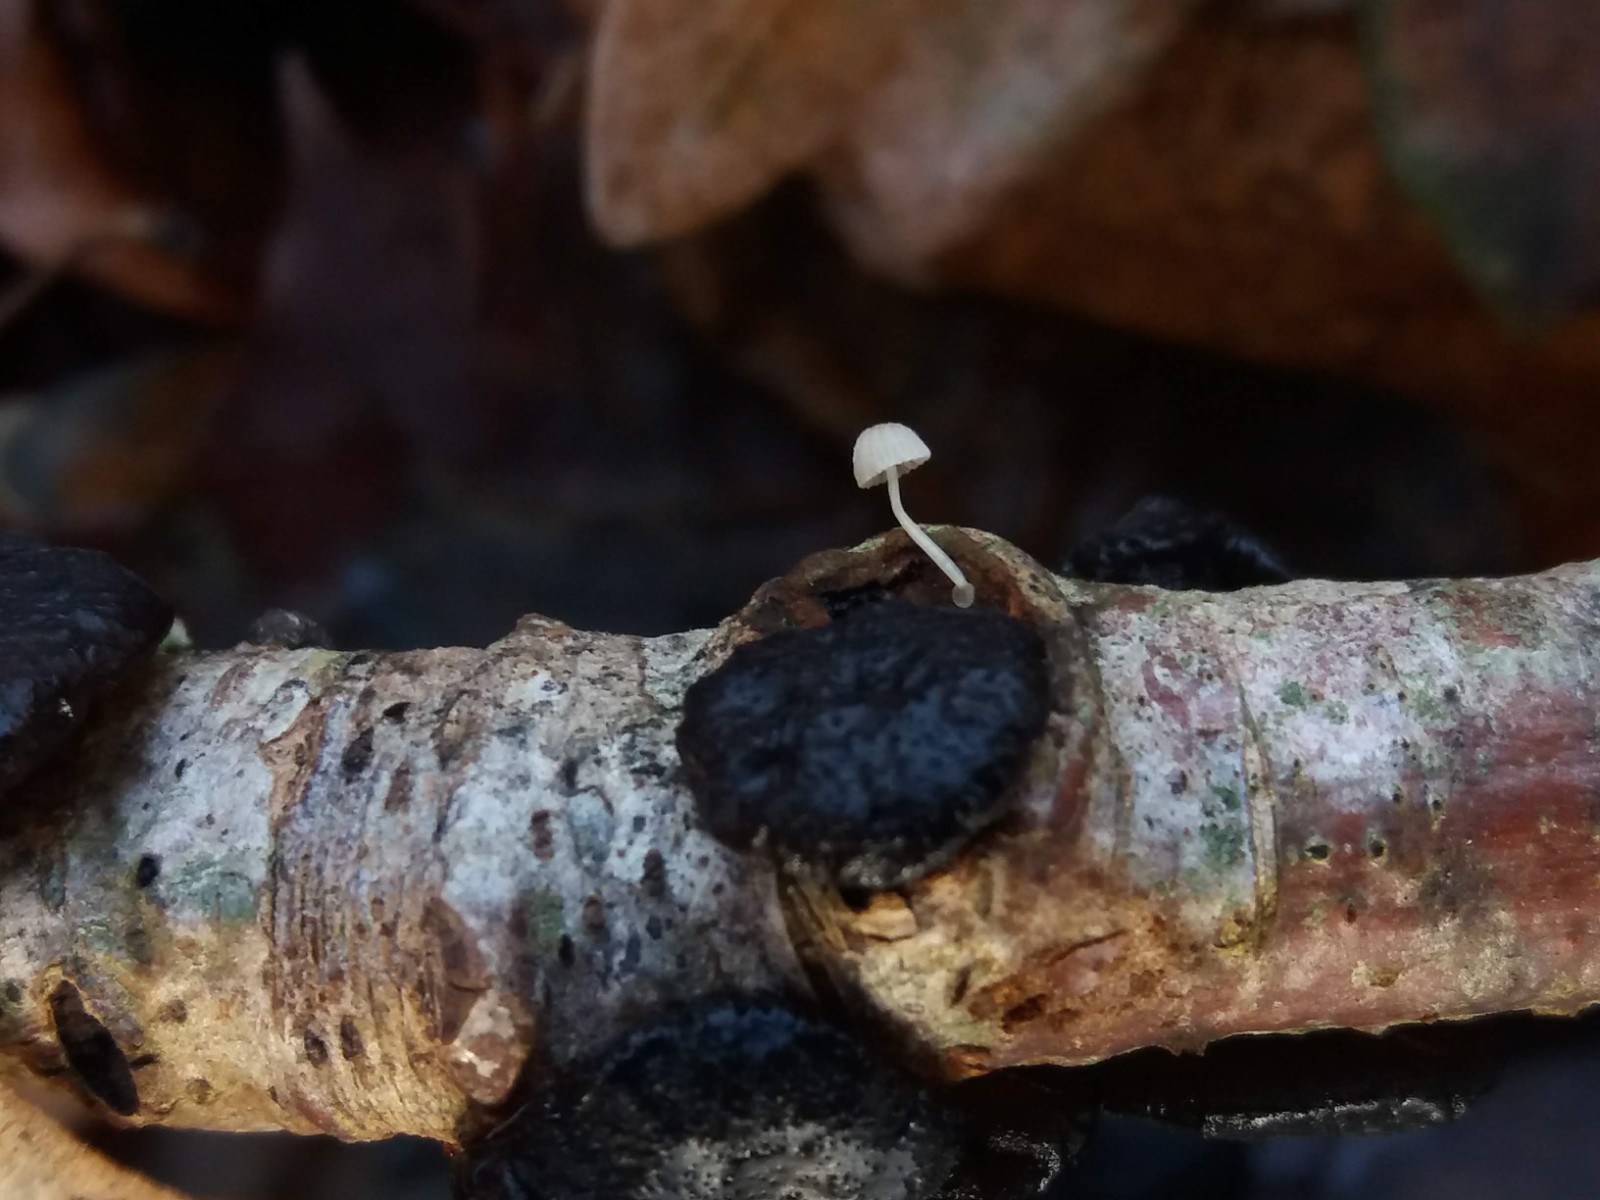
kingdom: Fungi
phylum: Basidiomycota
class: Agaricomycetes
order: Agaricales
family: Mycenaceae
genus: Mycena
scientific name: Mycena tenerrima
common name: pudret huesvamp
